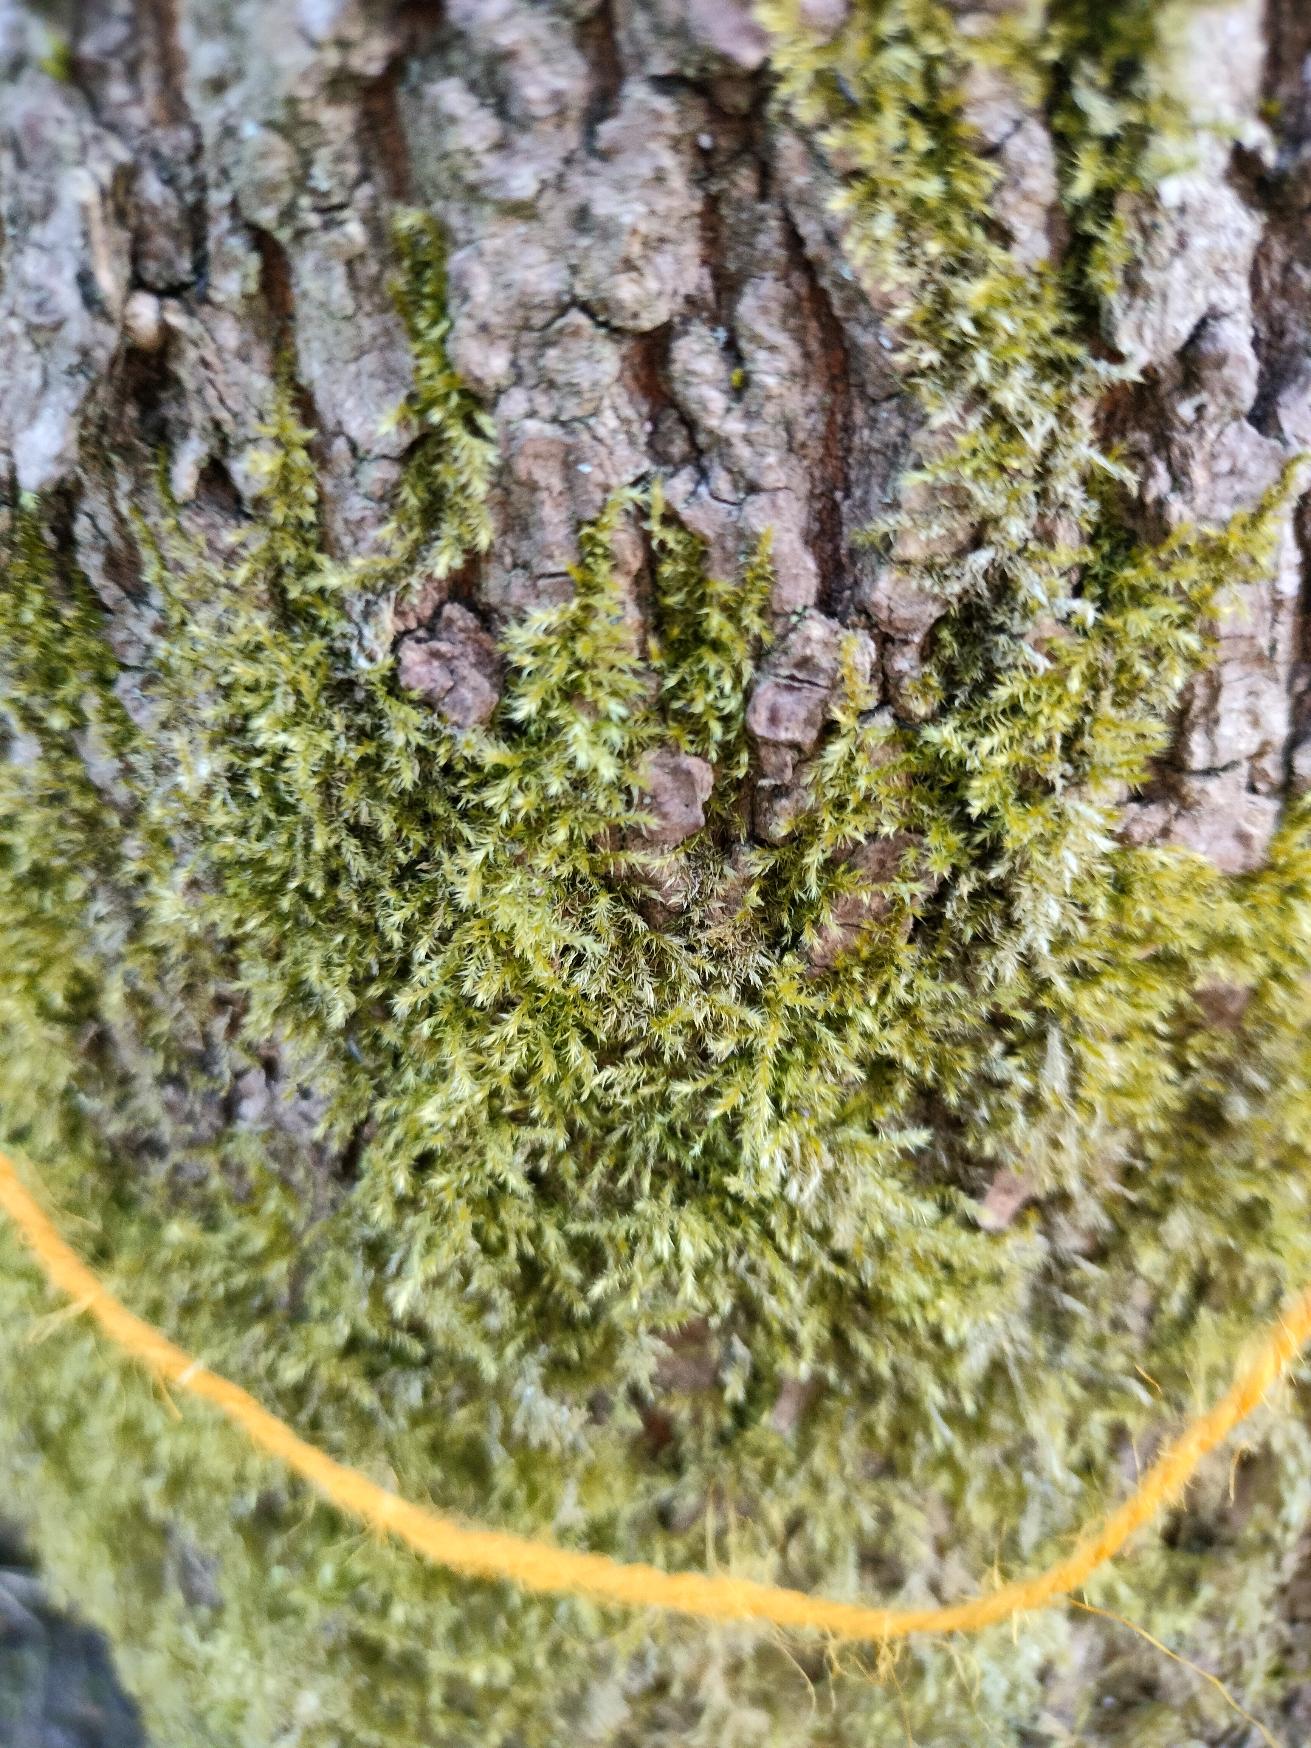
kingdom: Plantae
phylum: Bryophyta
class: Bryopsida
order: Hypnales
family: Brachytheciaceae
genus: Kindbergia
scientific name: Kindbergia praelonga
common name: Forskelligbladet vortetand
